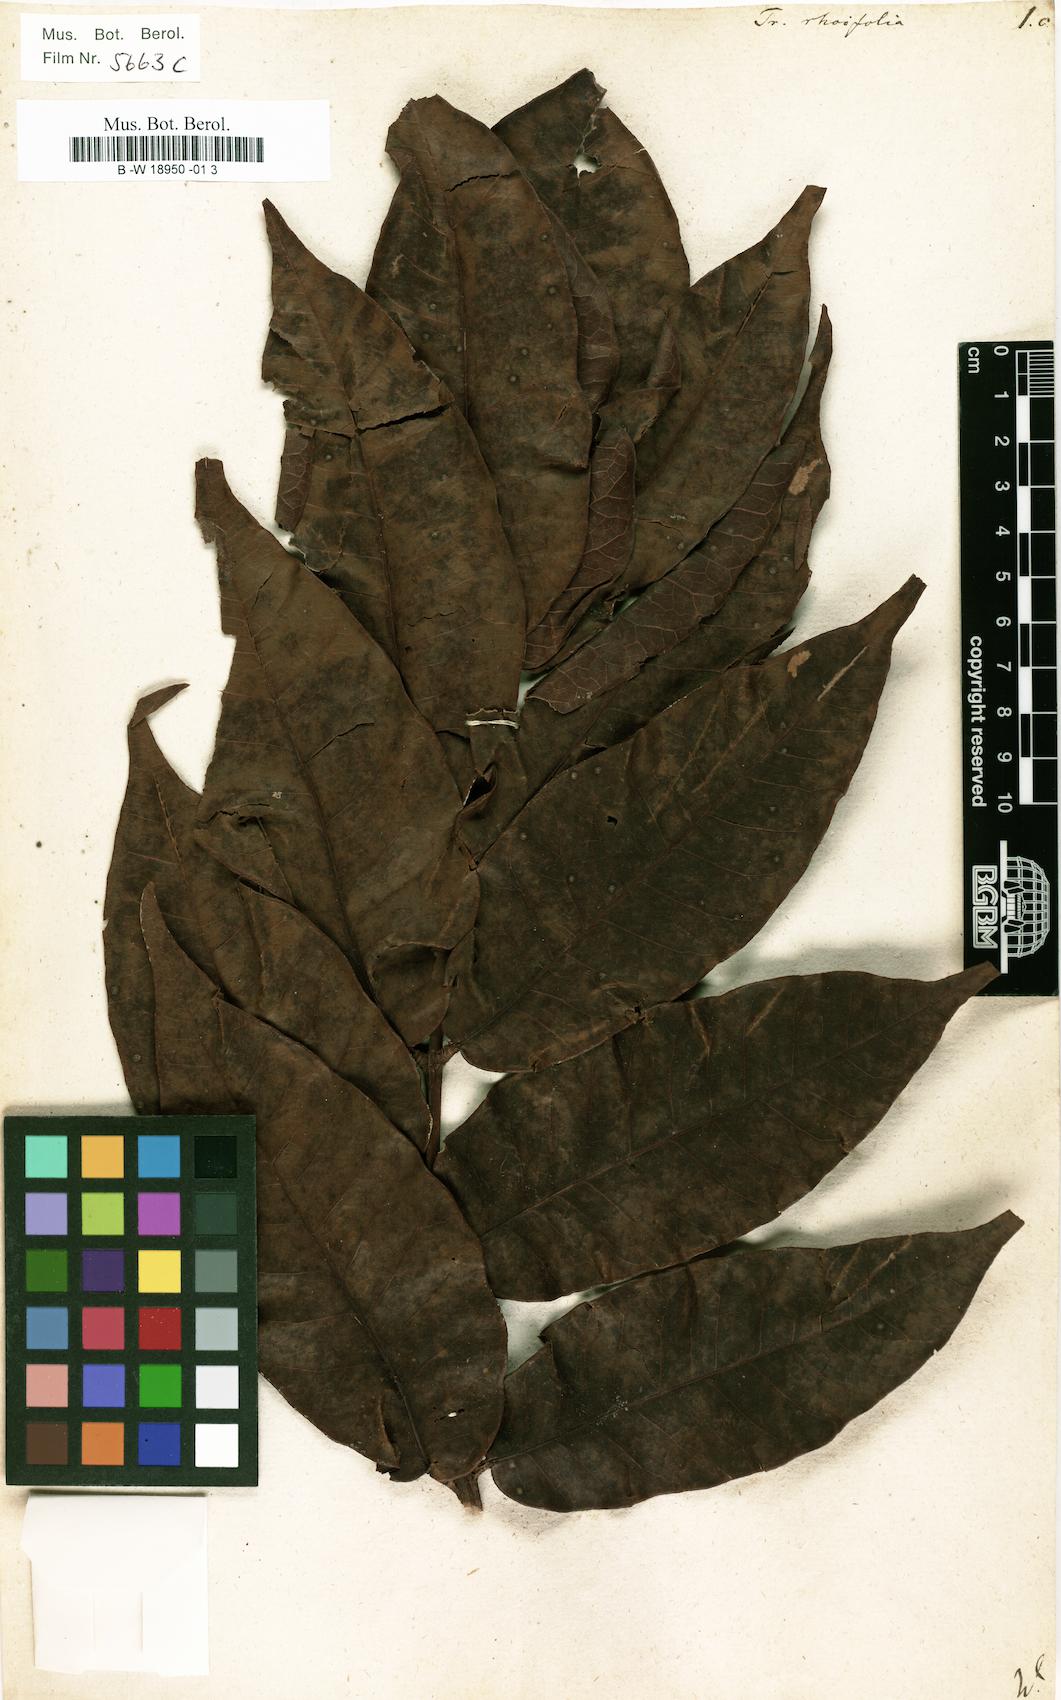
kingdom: Plantae
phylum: Tracheophyta
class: Magnoliopsida
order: Sapindales
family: Burseraceae
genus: Trattinnickia
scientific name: Trattinnickia rhoifolia
